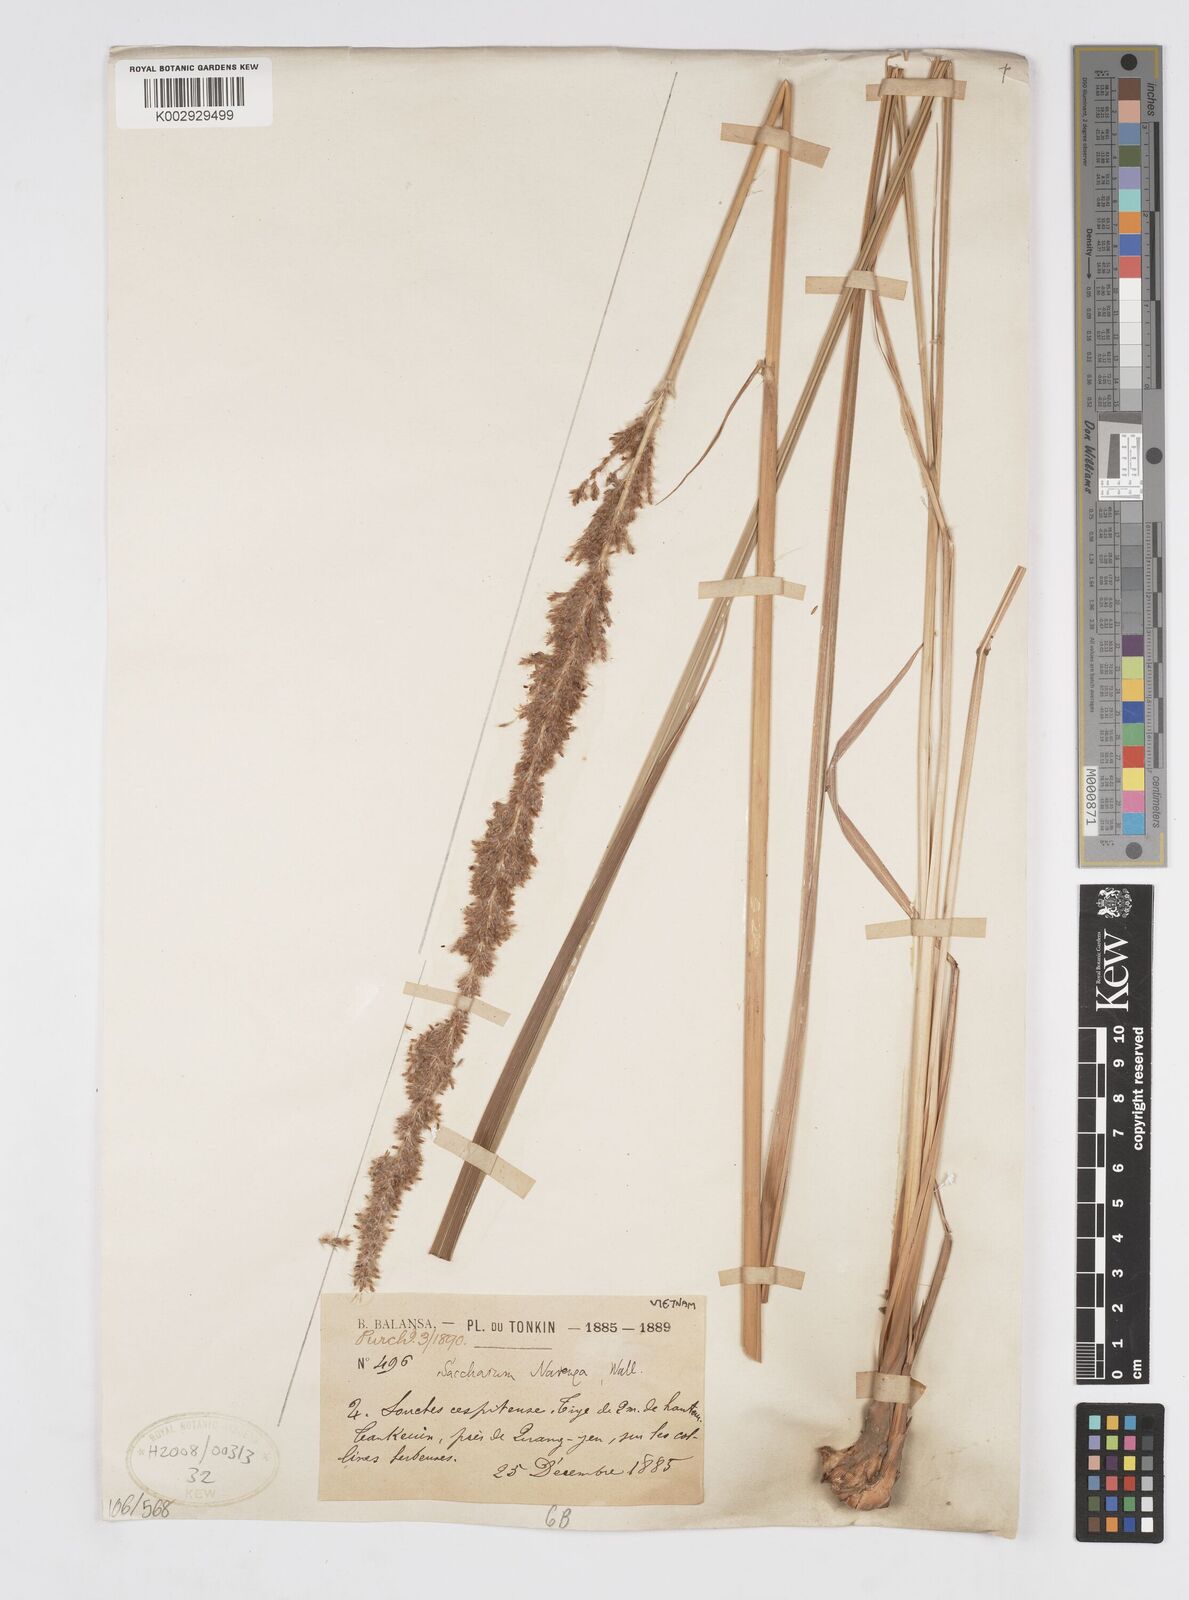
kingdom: Plantae
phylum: Tracheophyta
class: Liliopsida
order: Poales
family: Poaceae
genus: Narenga
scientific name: Narenga porphyrocoma
